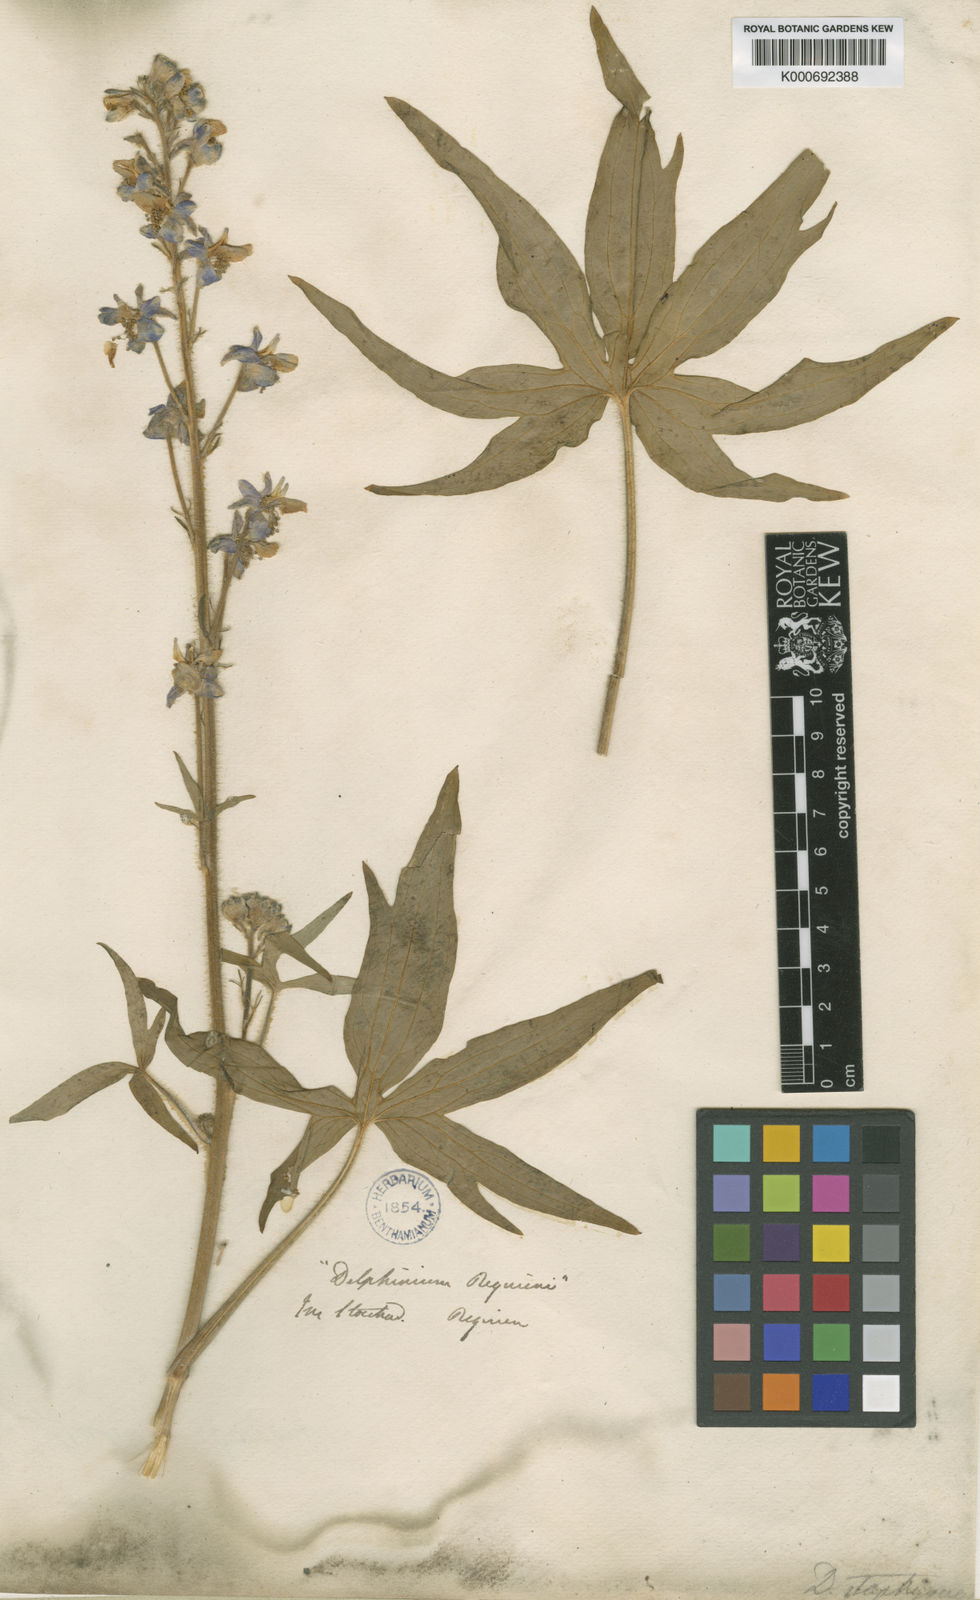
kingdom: Plantae
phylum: Tracheophyta
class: Magnoliopsida
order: Ranunculales
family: Ranunculaceae
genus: Staphisagria
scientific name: Staphisagria requienii
